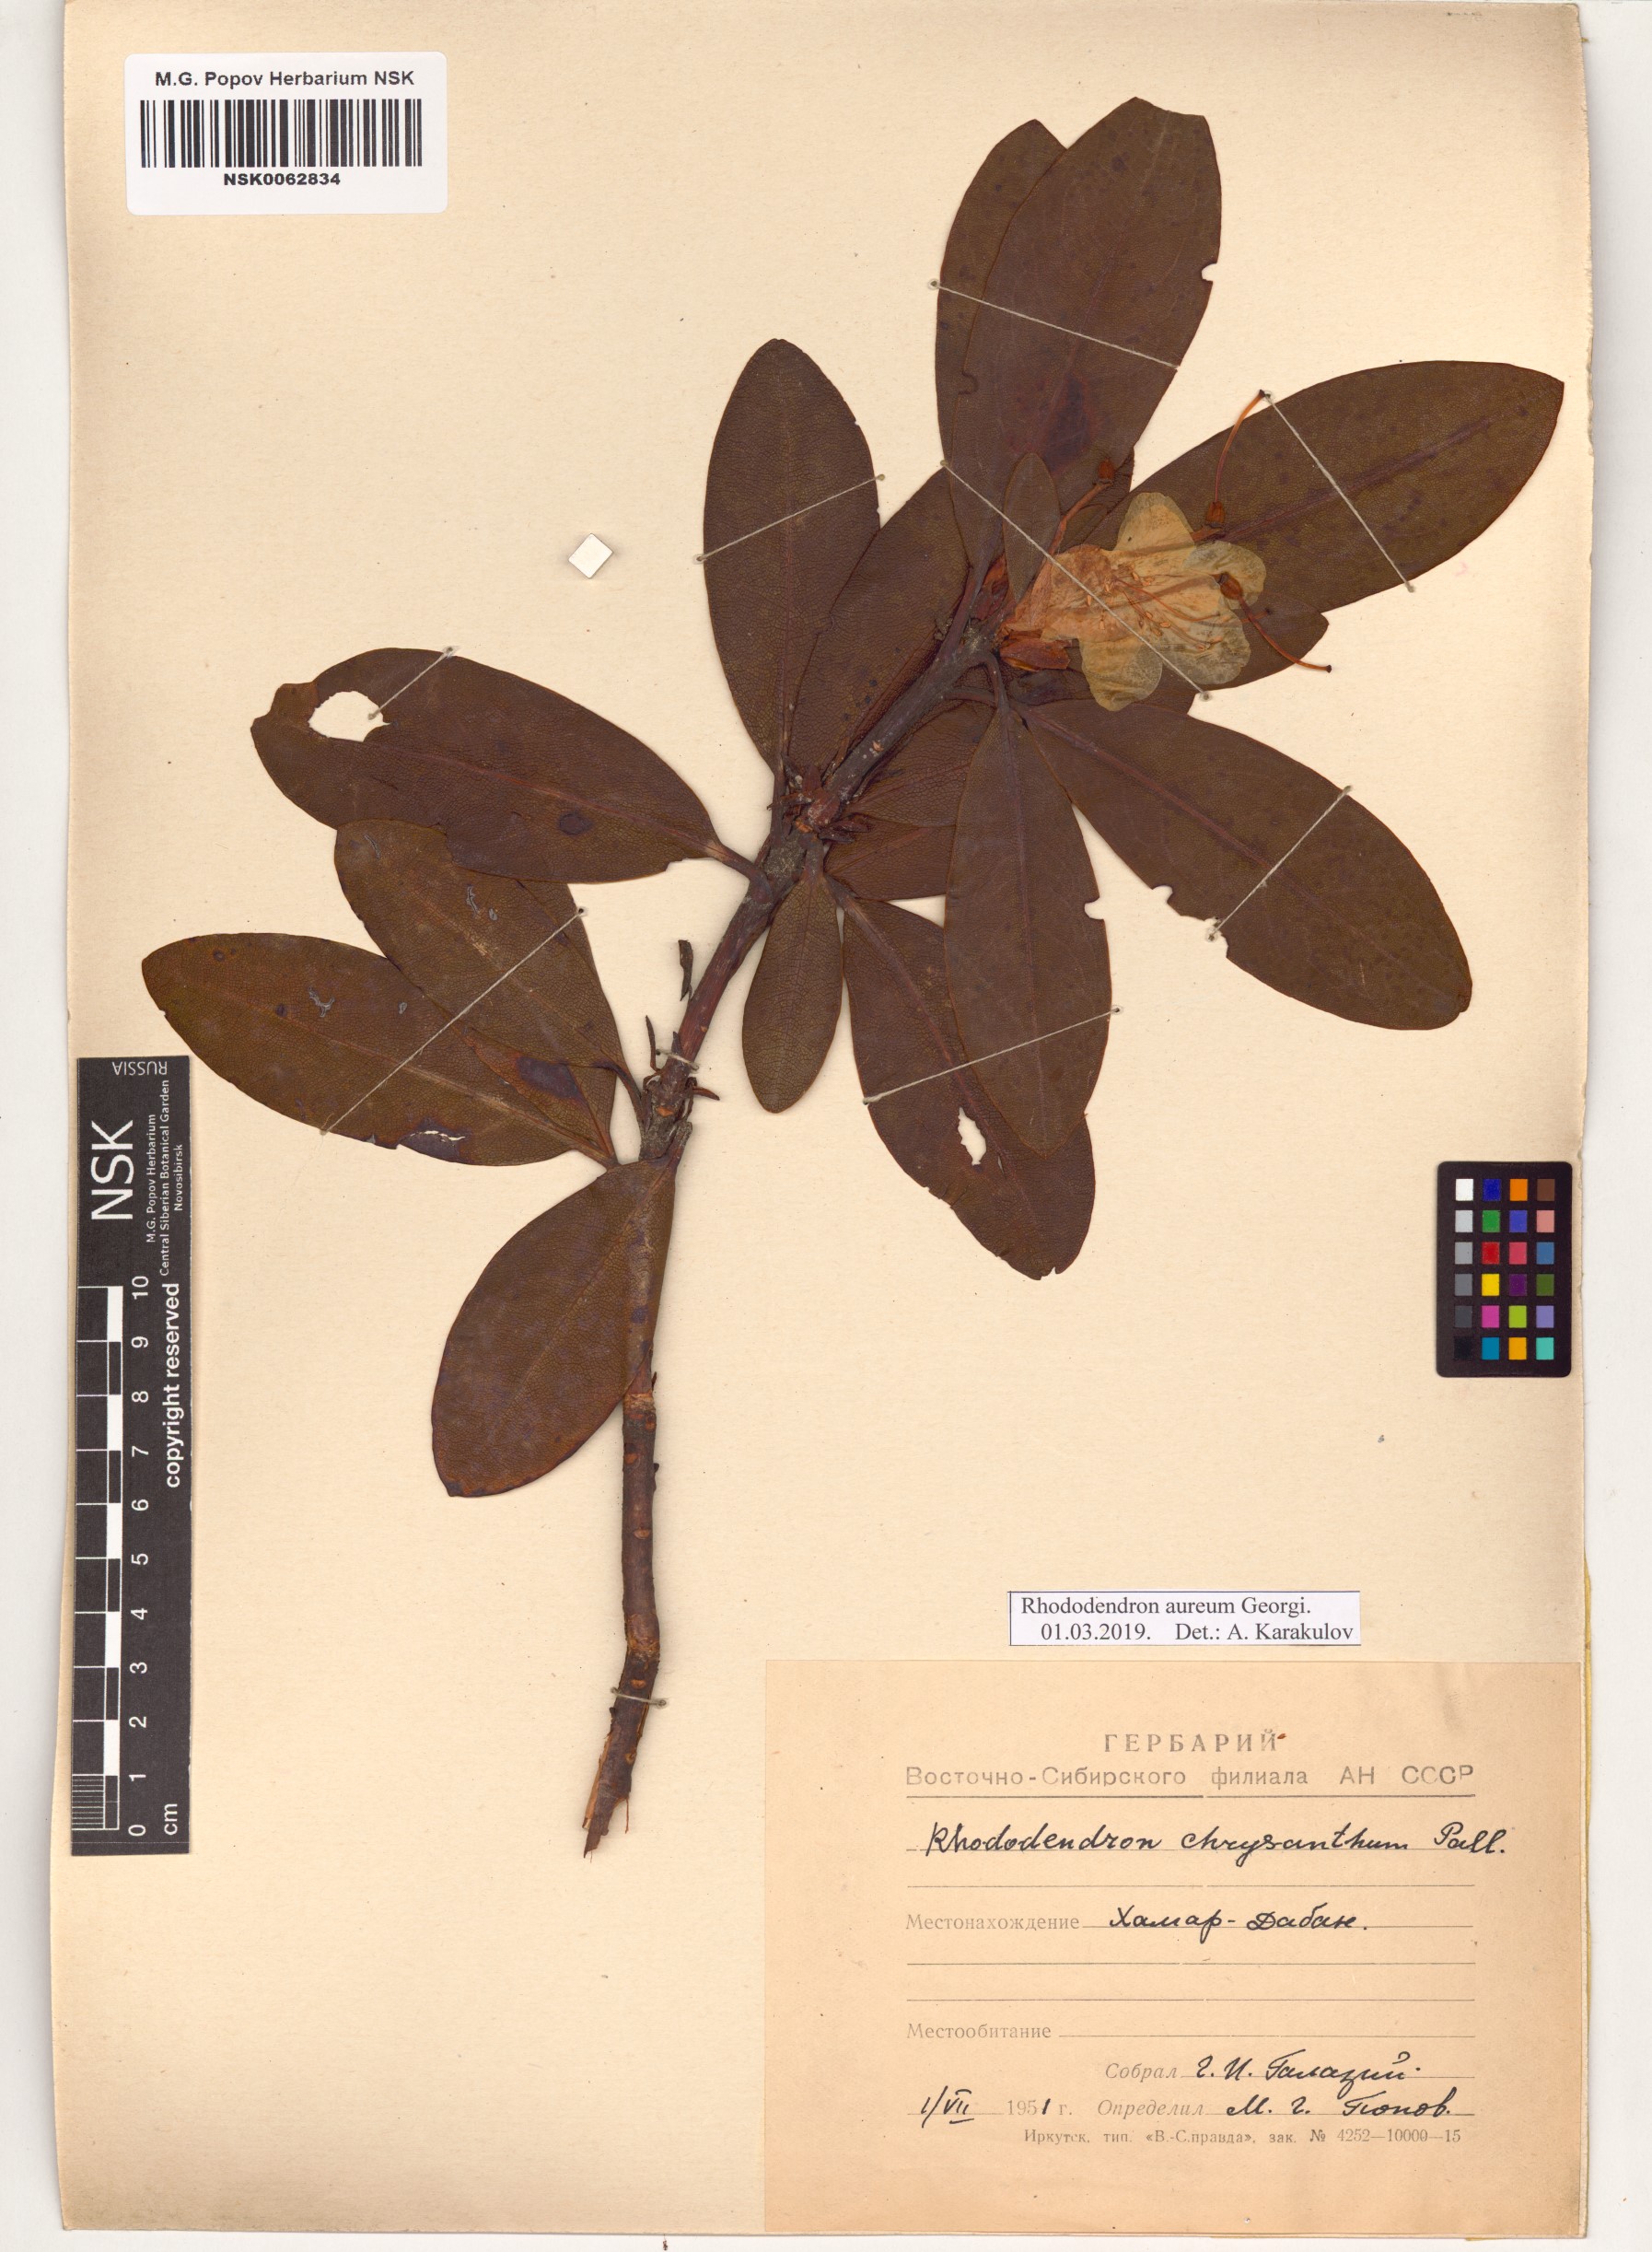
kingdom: Plantae
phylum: Tracheophyta
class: Magnoliopsida
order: Ericales
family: Ericaceae
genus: Rhododendron
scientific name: Rhododendron aureum
